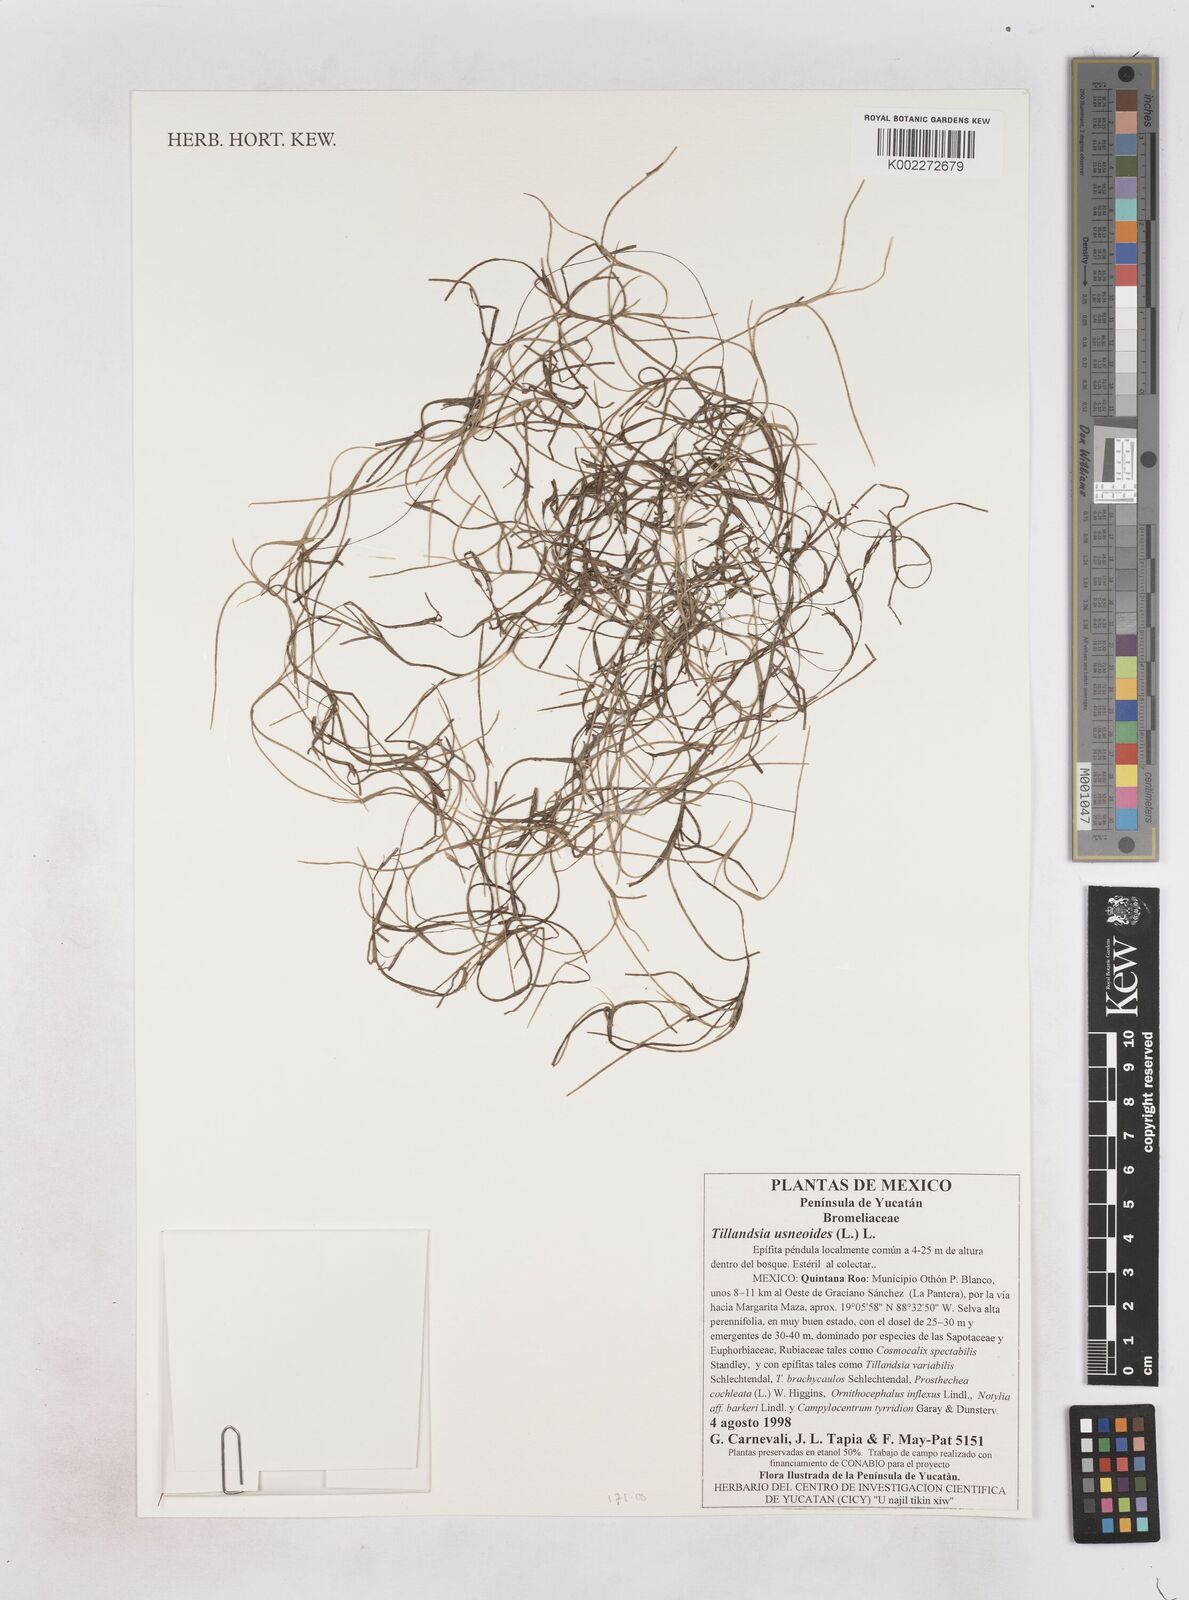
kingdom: Plantae
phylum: Tracheophyta
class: Liliopsida
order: Poales
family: Bromeliaceae
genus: Tillandsia
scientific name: Tillandsia usneoides
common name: Spanish moss
